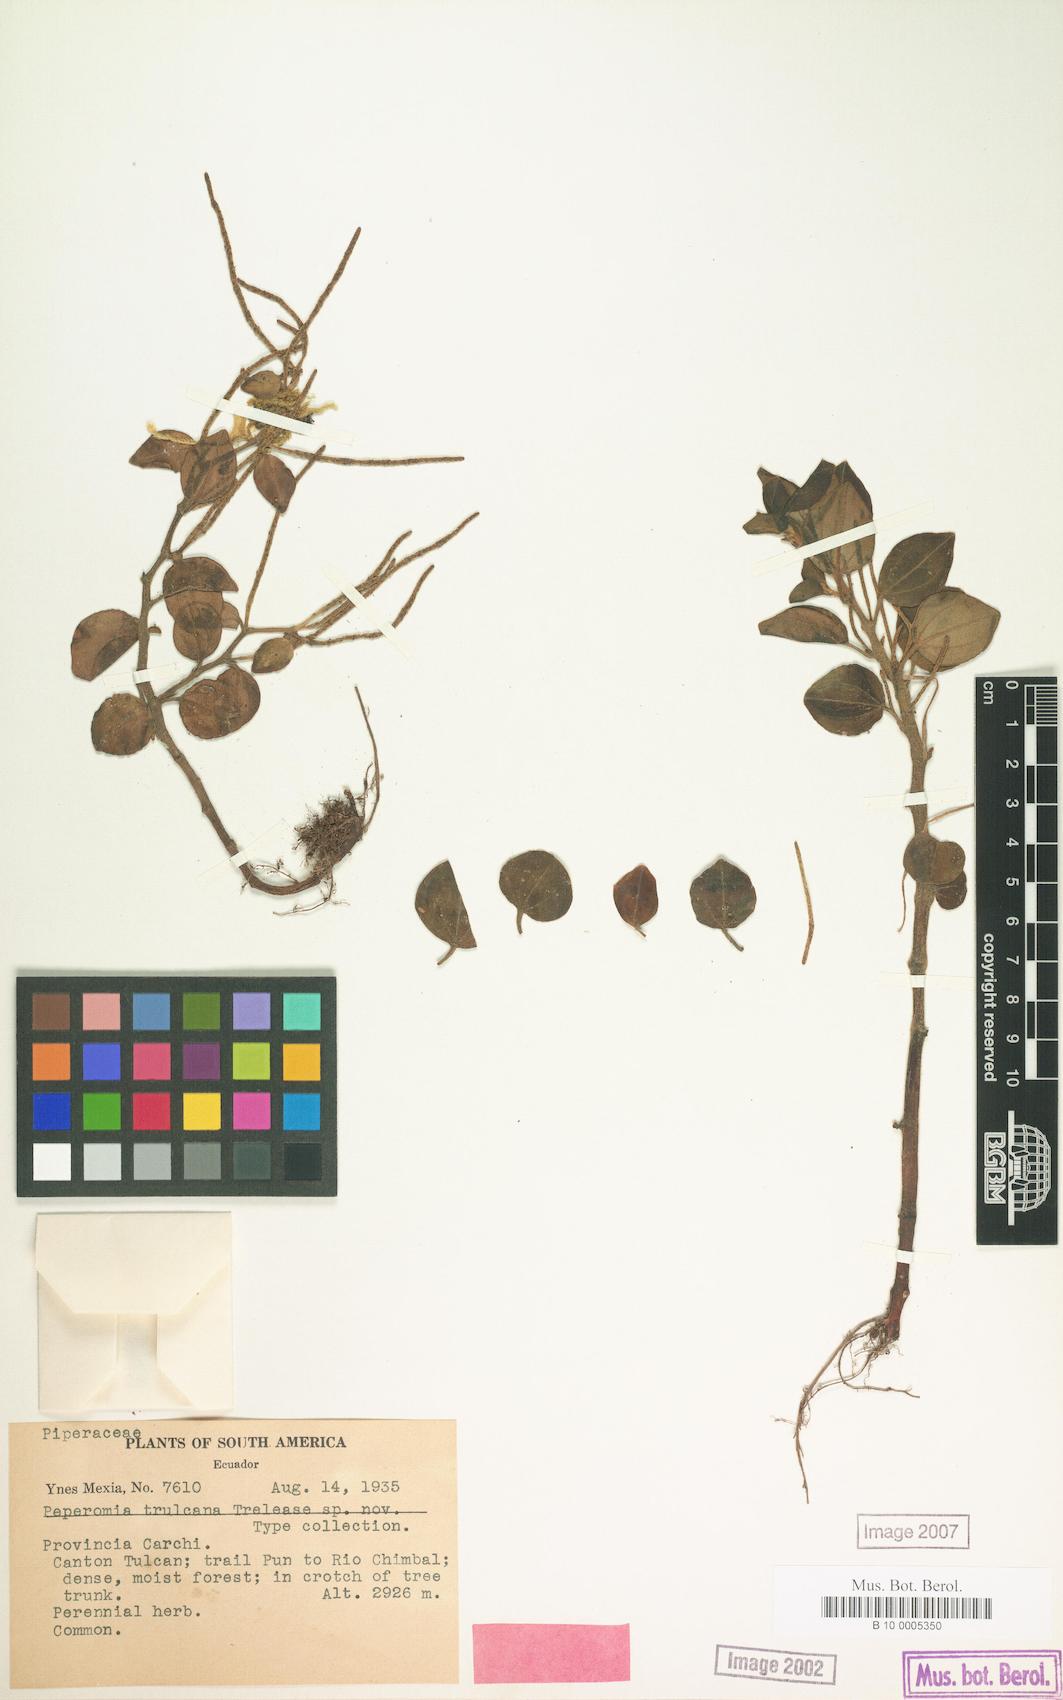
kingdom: Plantae
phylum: Tracheophyta
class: Magnoliopsida
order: Piperales
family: Piperaceae
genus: Peperomia
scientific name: Peperomia spathophylla
